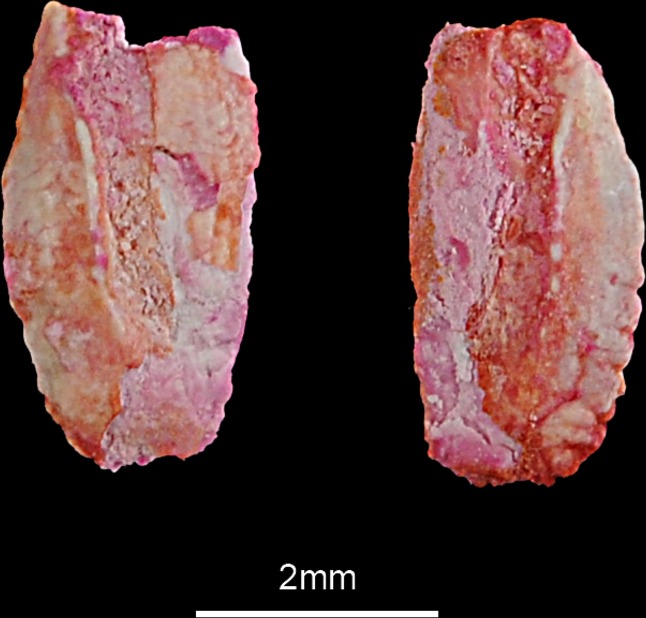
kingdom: Animalia
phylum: Chordata
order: Scorpaeniformes
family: Scorpaenidae
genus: Scorpaena
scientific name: Scorpaena scrofa
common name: Red scorpionfish
